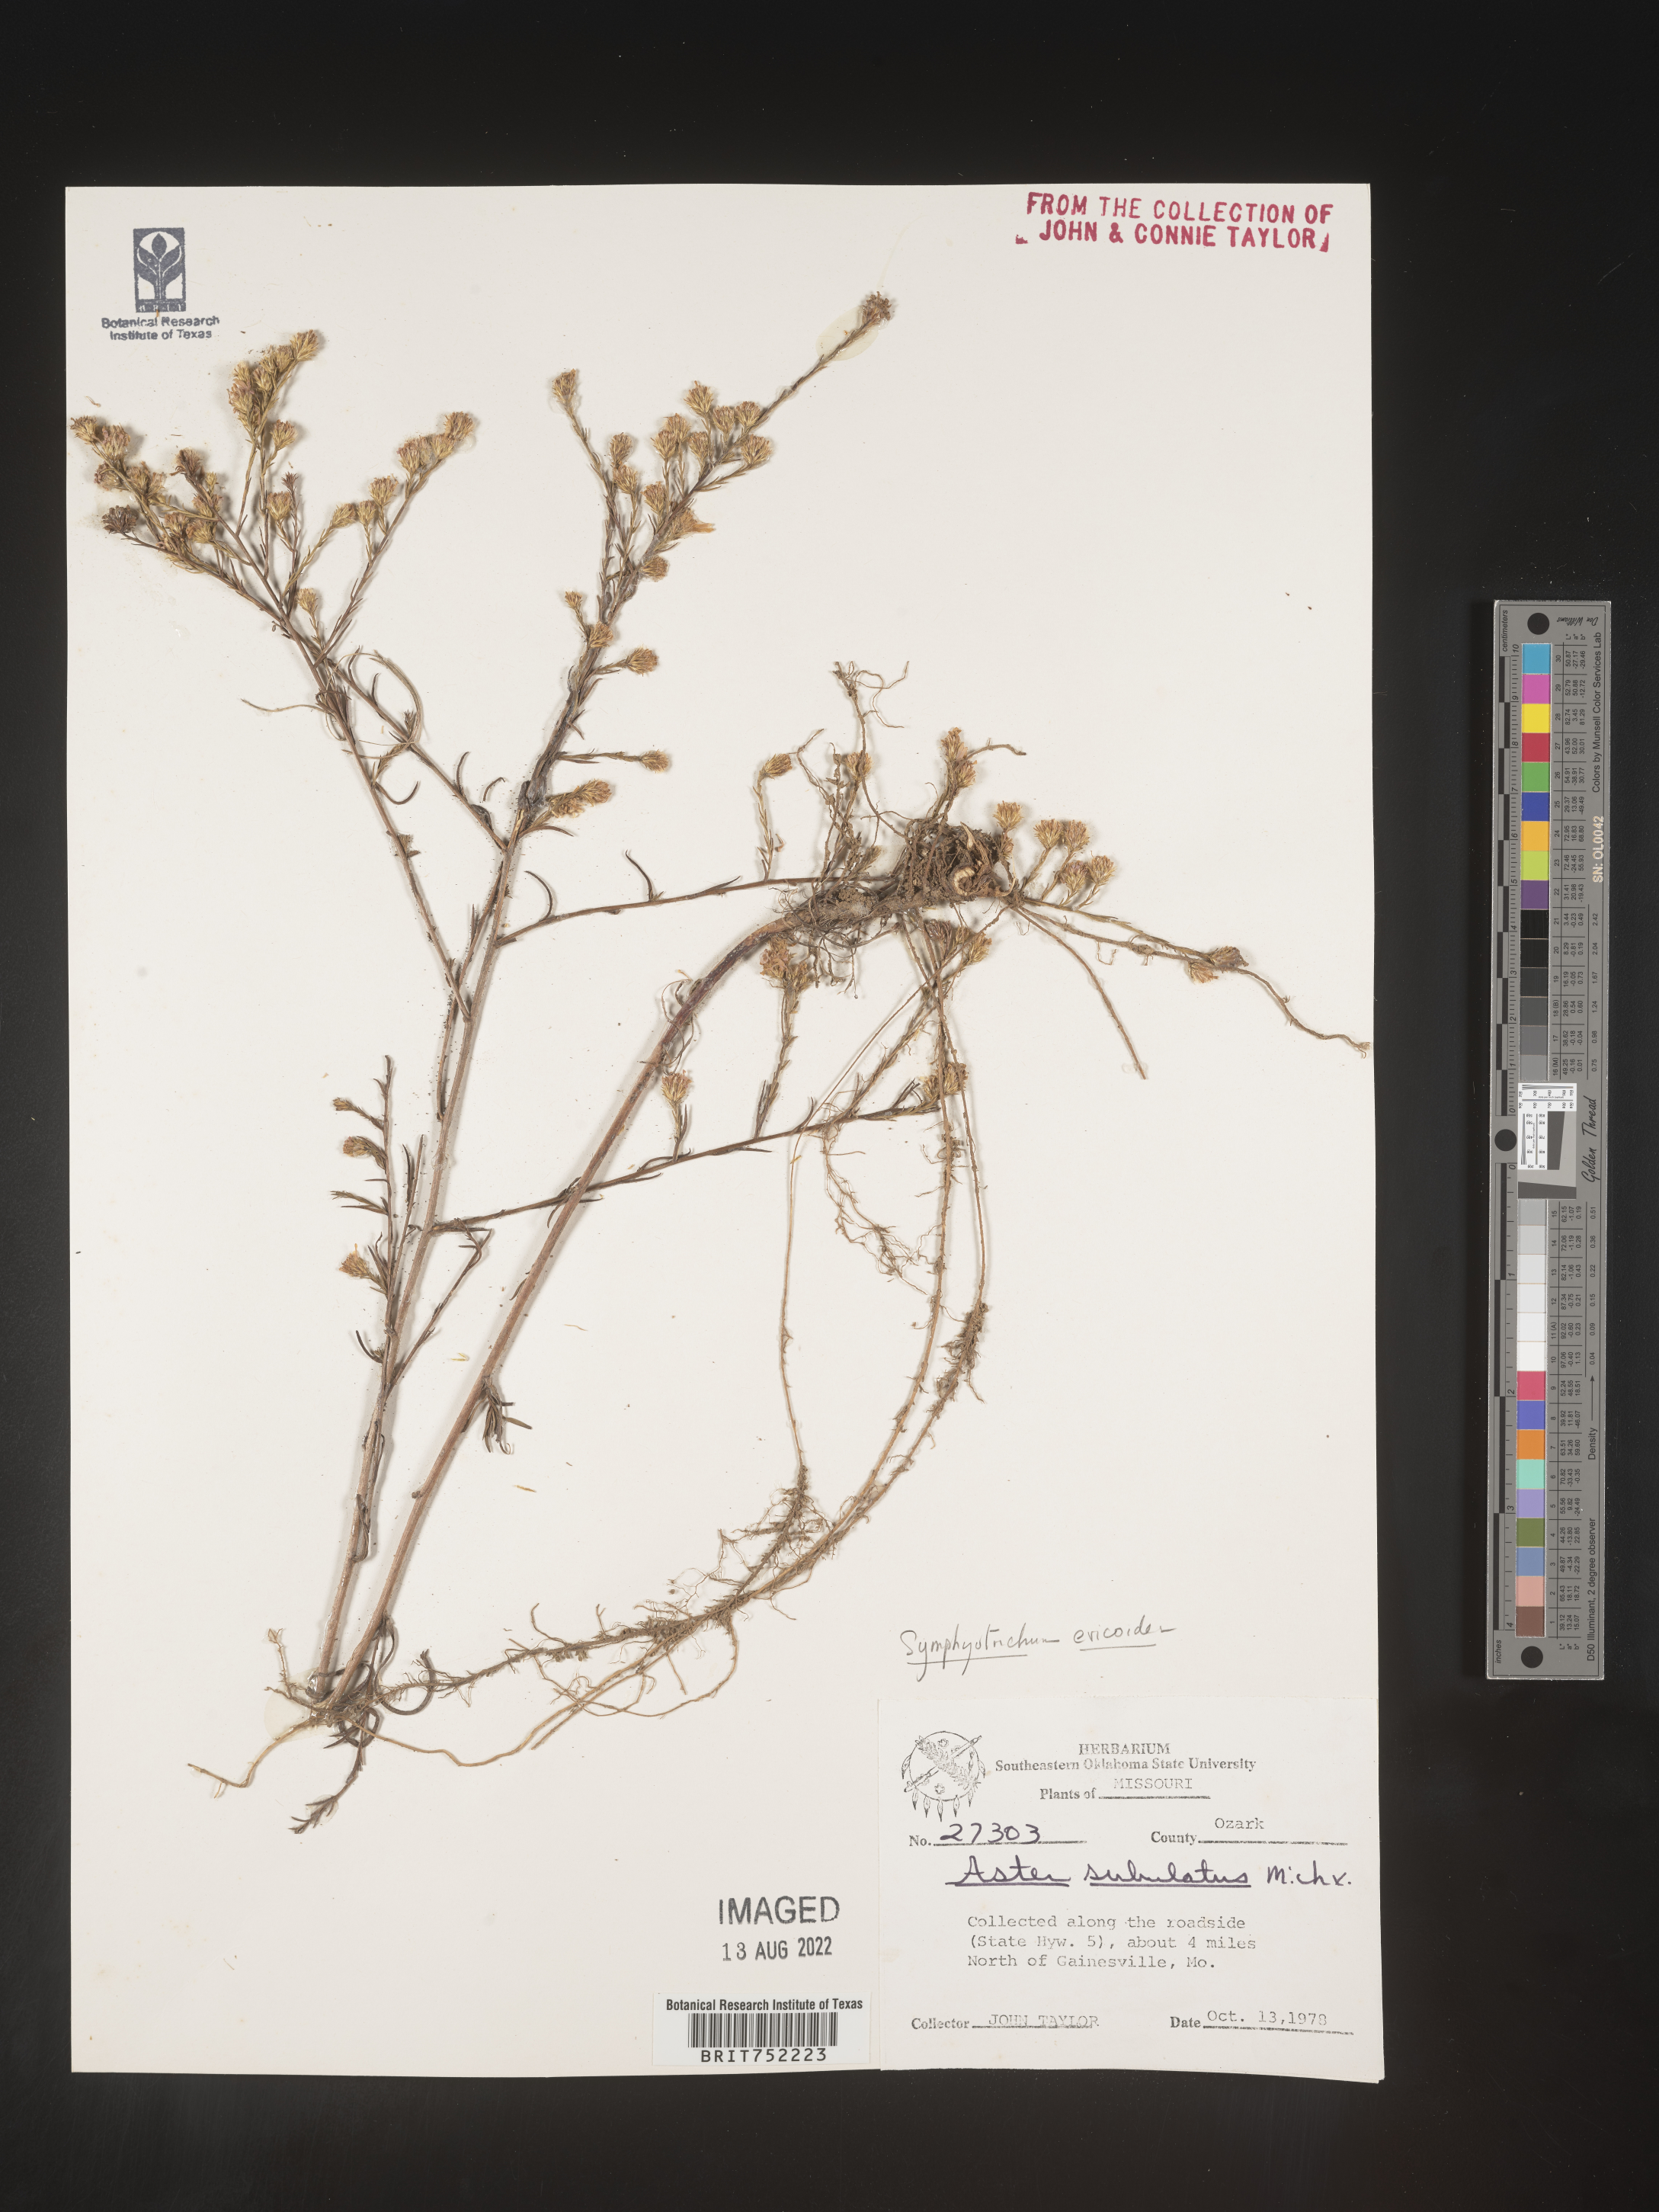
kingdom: Plantae
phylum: Tracheophyta
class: Magnoliopsida
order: Asterales
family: Asteraceae
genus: Symphyotrichum
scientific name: Symphyotrichum ericoides
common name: Heath aster
